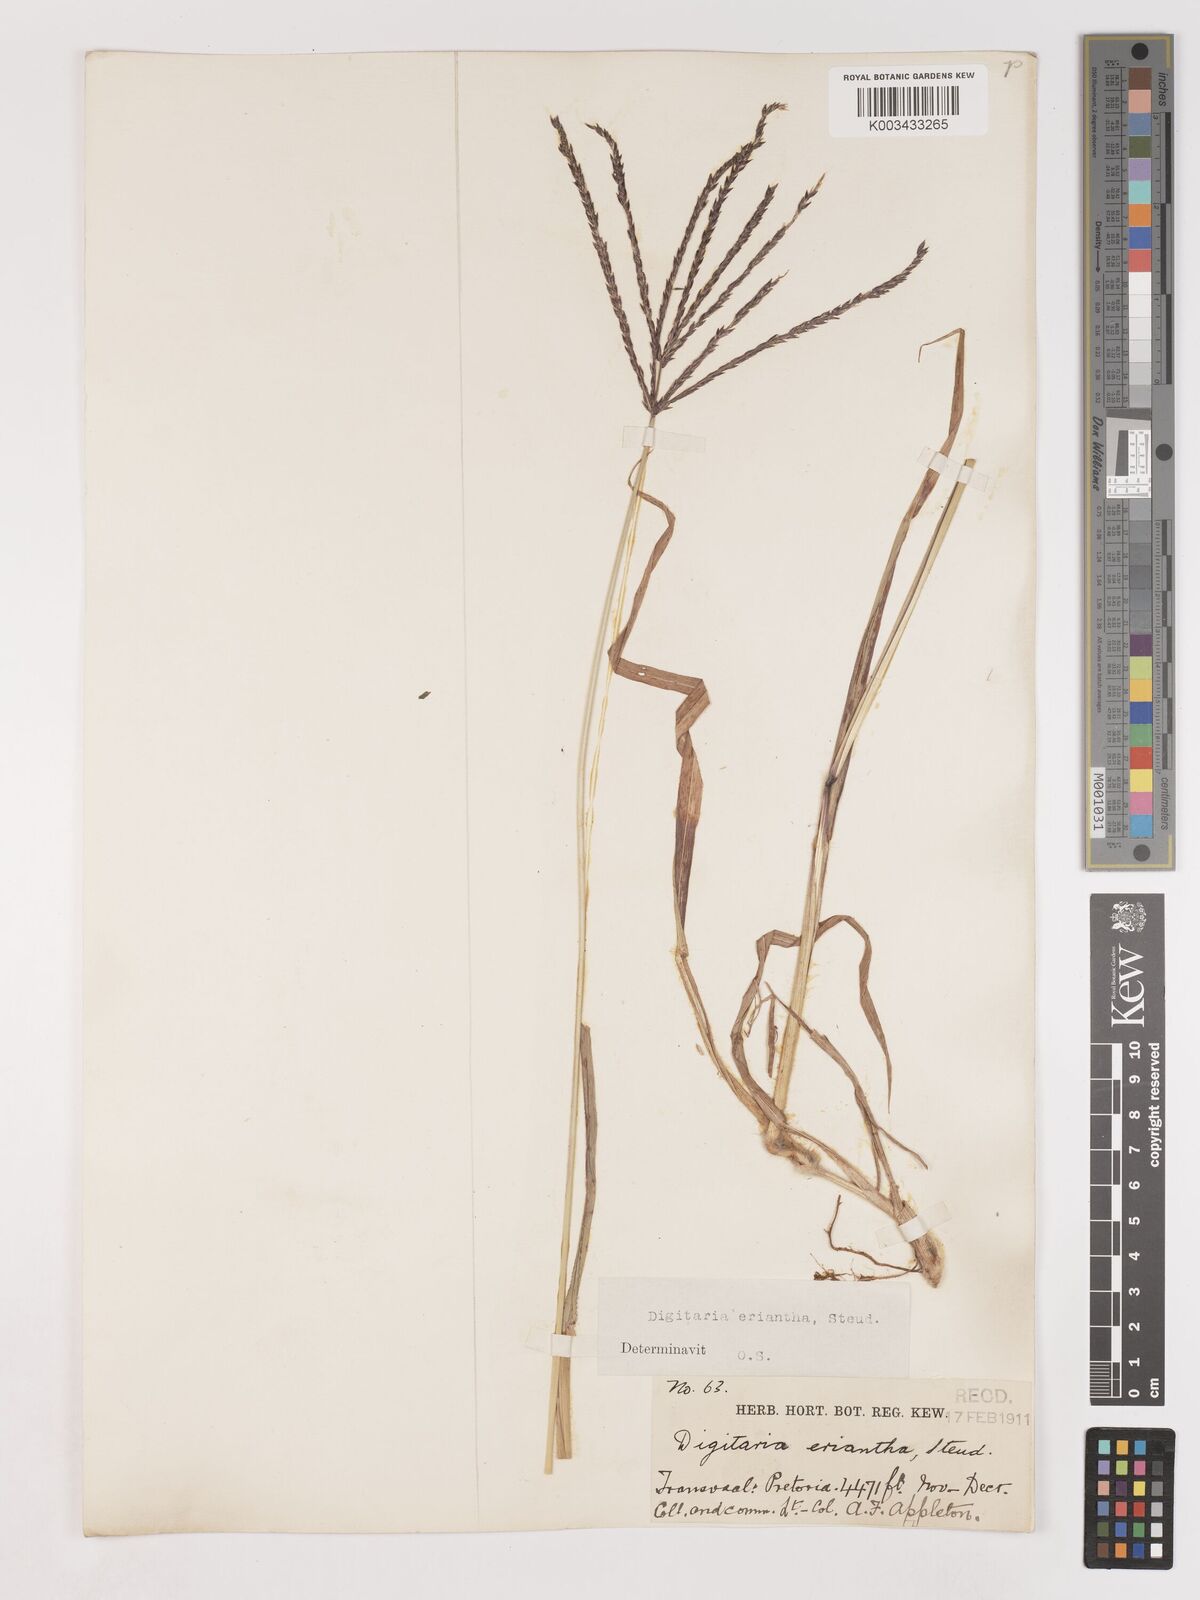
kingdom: Plantae
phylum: Tracheophyta
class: Liliopsida
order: Poales
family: Poaceae
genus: Digitaria
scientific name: Digitaria eriantha
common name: Digitgrass
